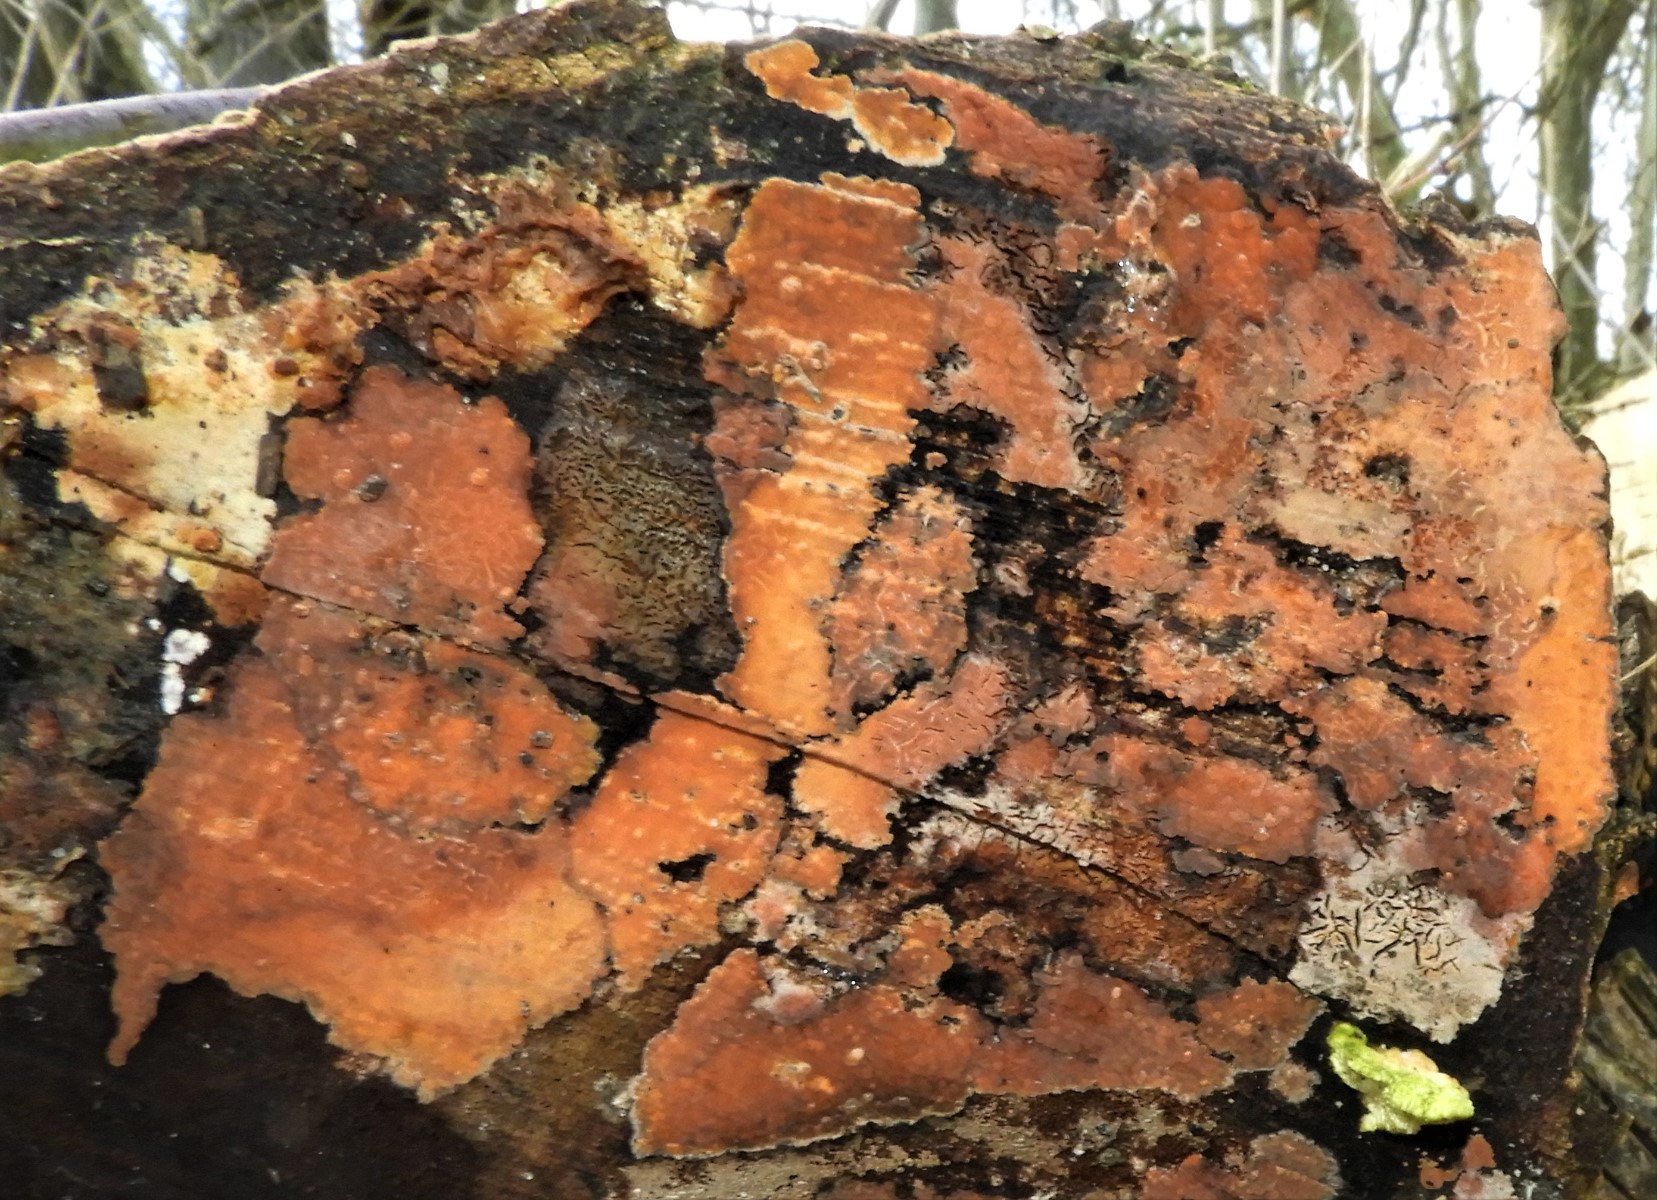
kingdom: Fungi
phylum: Basidiomycota
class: Agaricomycetes
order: Russulales
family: Peniophoraceae
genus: Peniophora
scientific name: Peniophora incarnata
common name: laksefarvet voksskind
